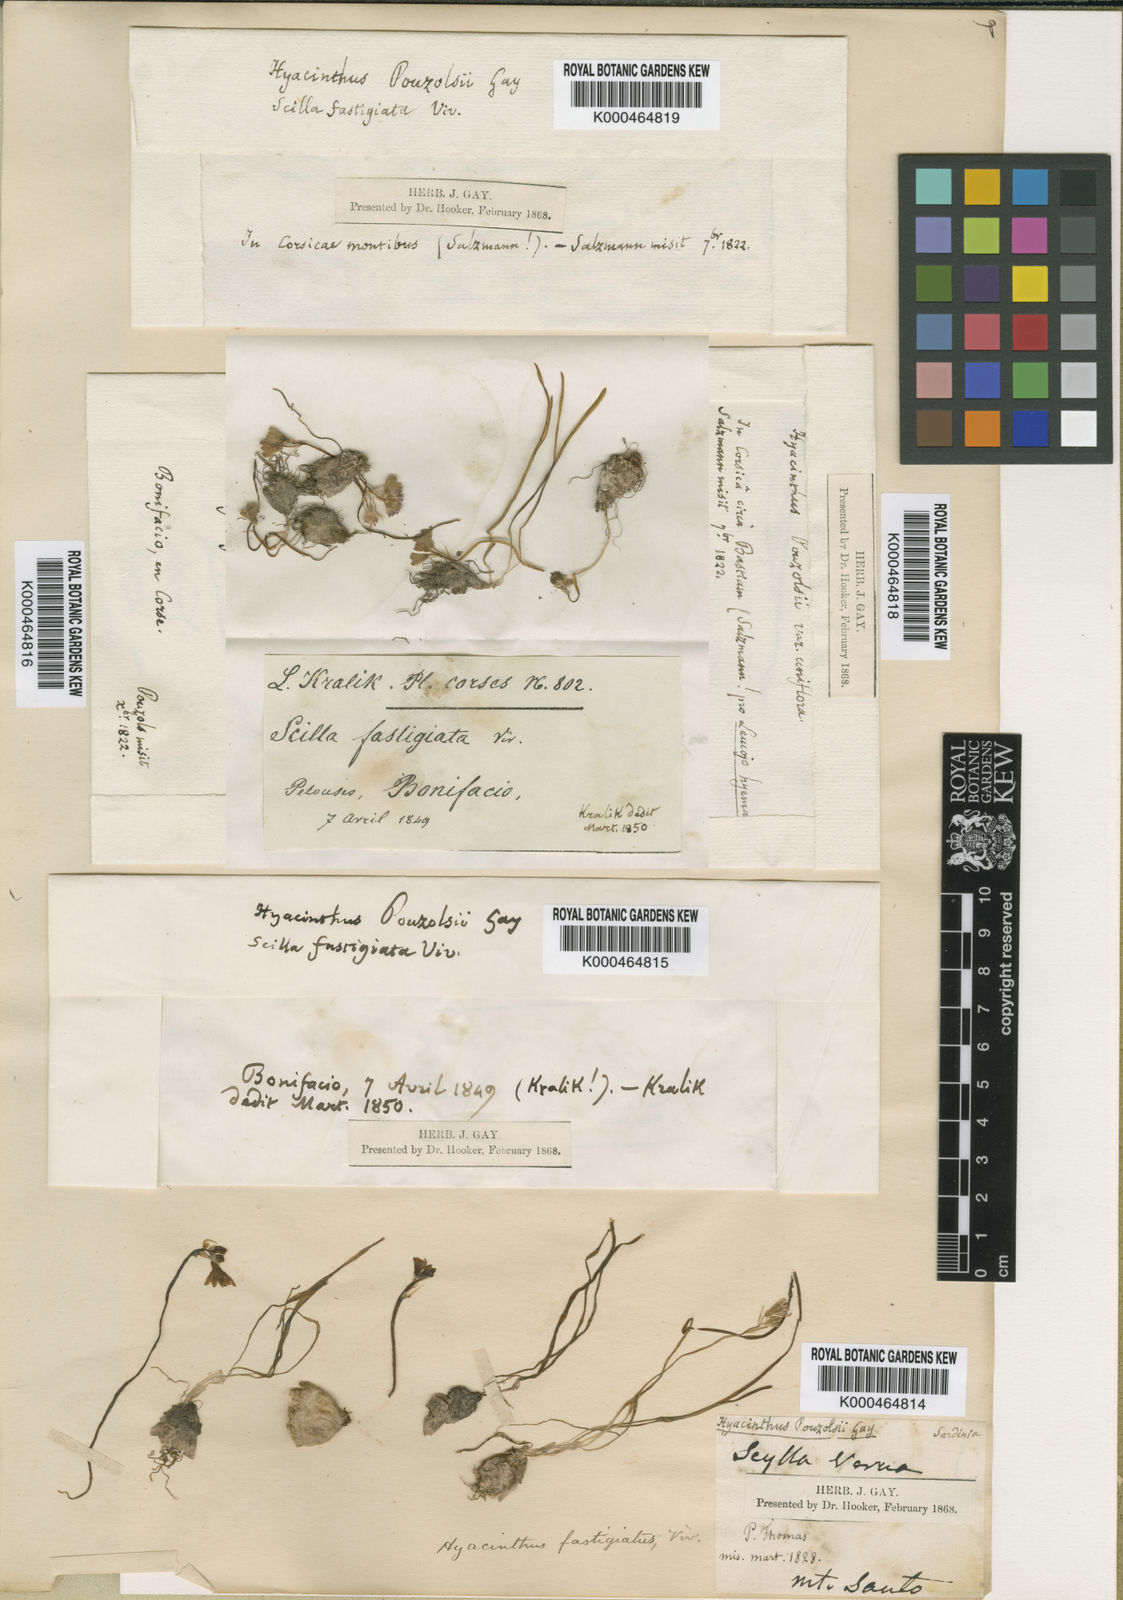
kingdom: Plantae
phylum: Tracheophyta
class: Liliopsida
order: Asparagales
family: Asparagaceae
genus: Brimeura
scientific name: Brimeura fastigiata
